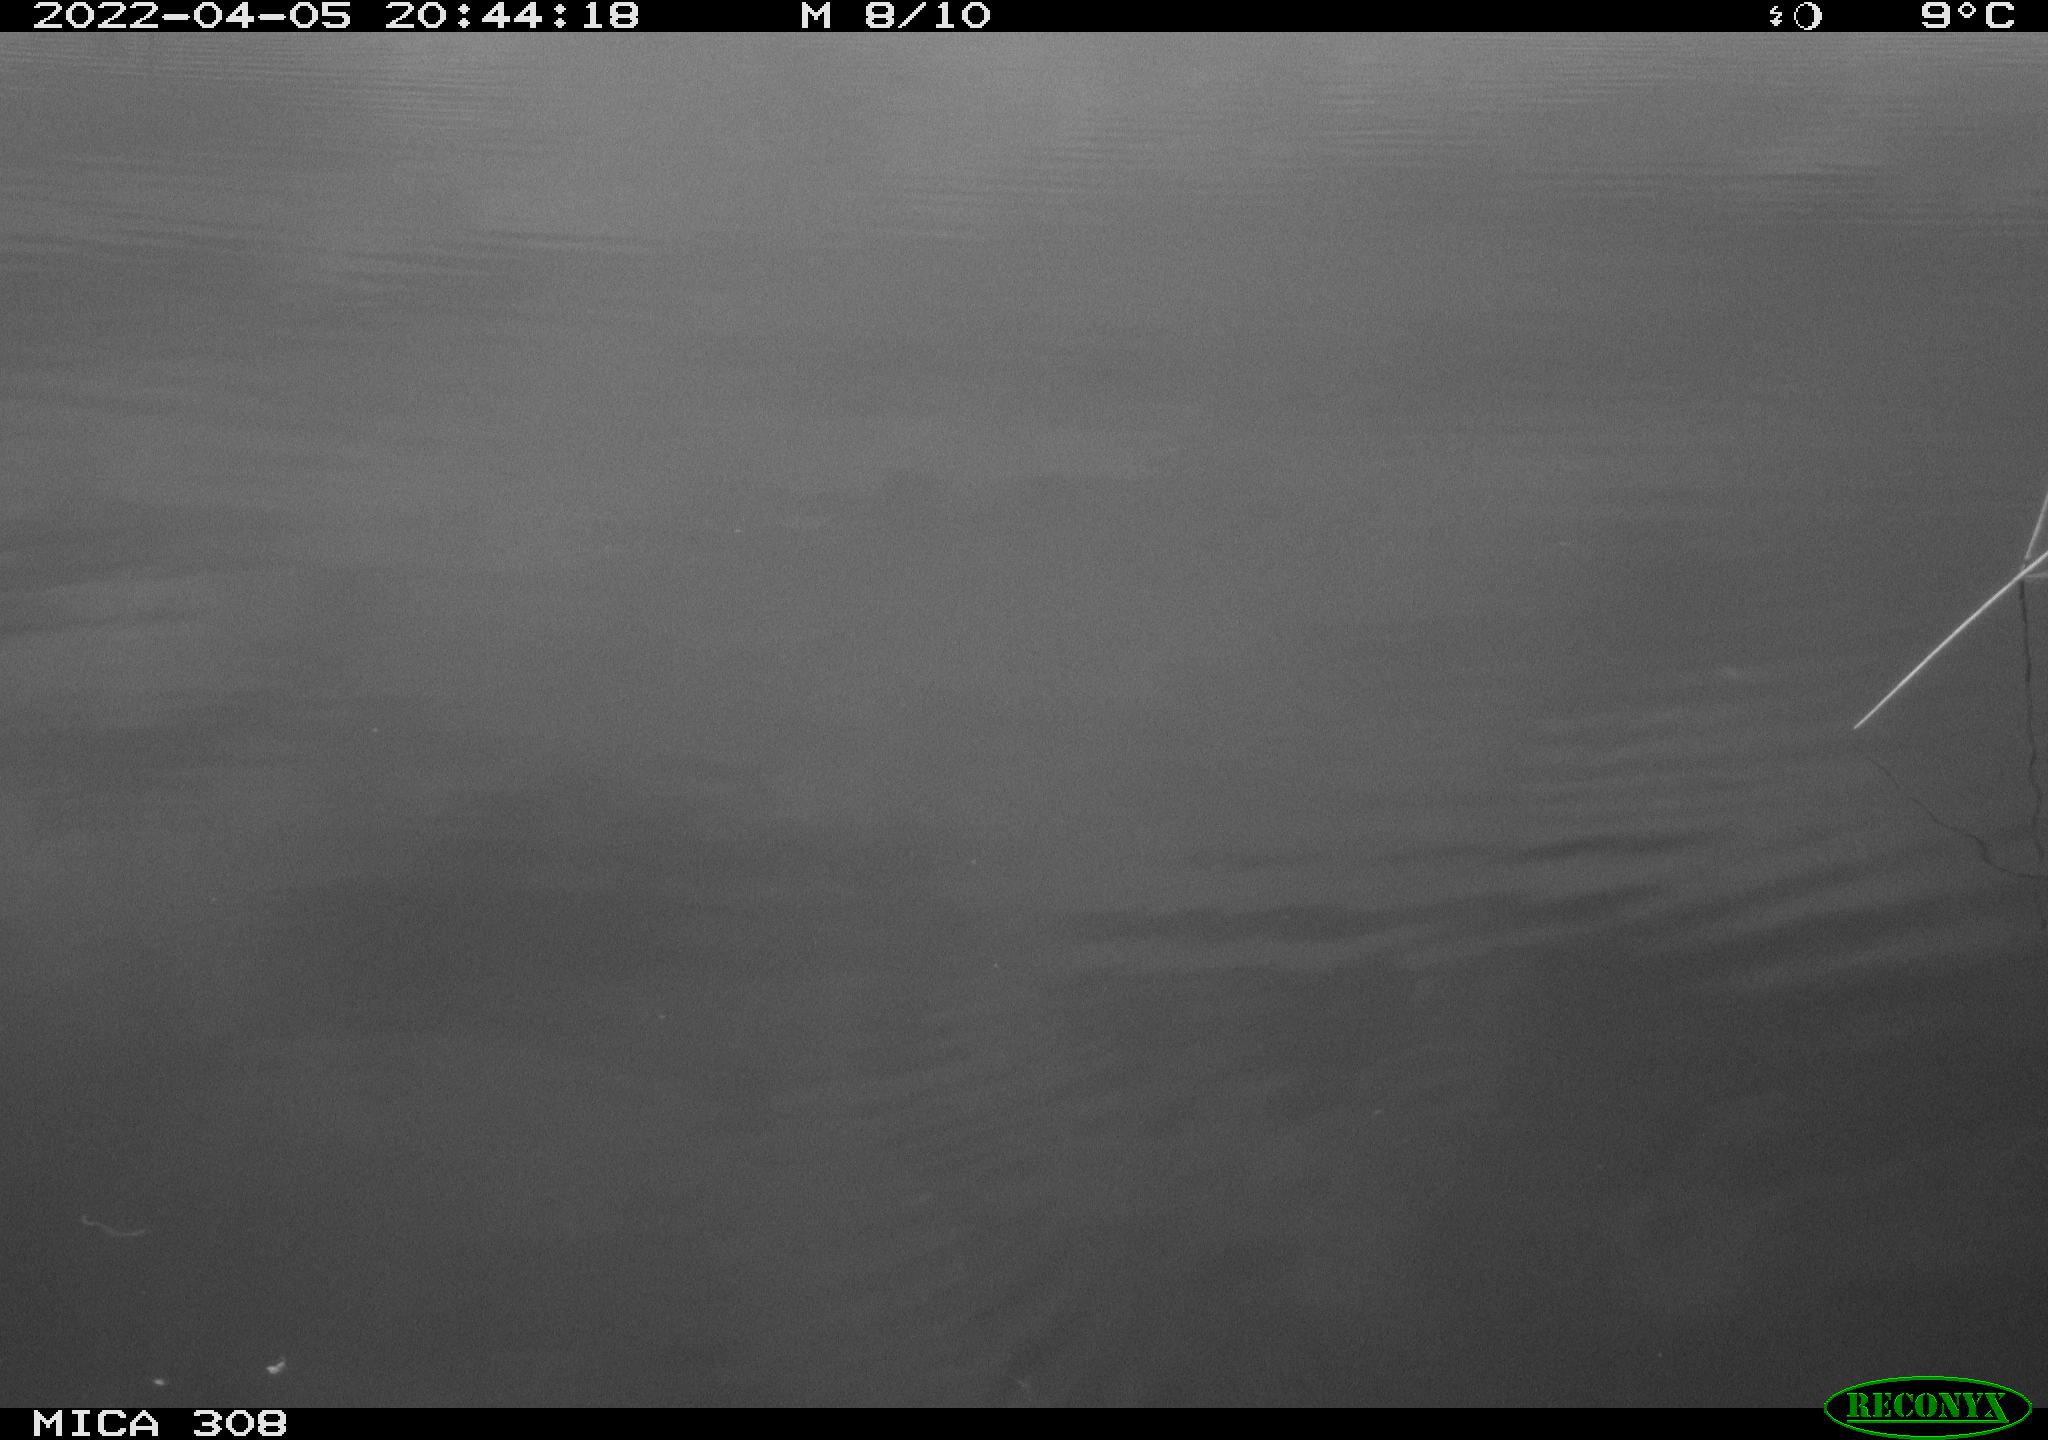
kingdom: Animalia
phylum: Chordata
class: Aves
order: Anseriformes
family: Anatidae
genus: Anas
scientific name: Anas platyrhynchos
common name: Mallard
